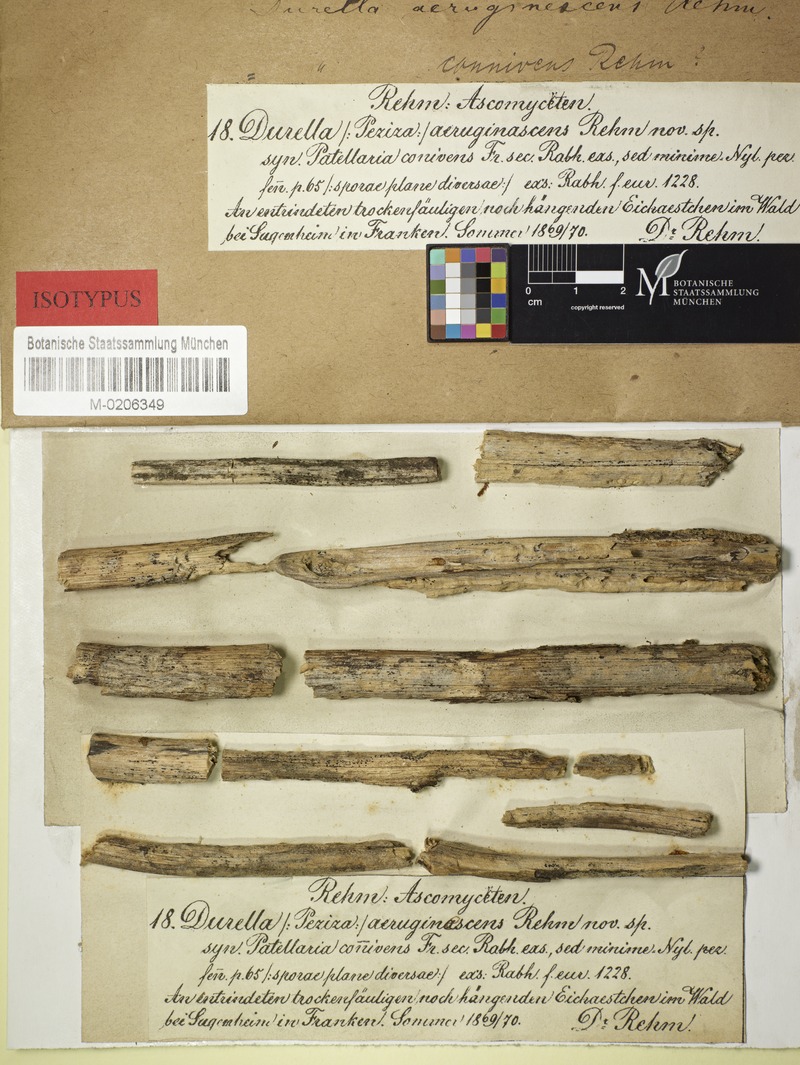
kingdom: Plantae
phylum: Tracheophyta
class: Magnoliopsida
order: Fagales
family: Fagaceae
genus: Quercus
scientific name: Quercus
